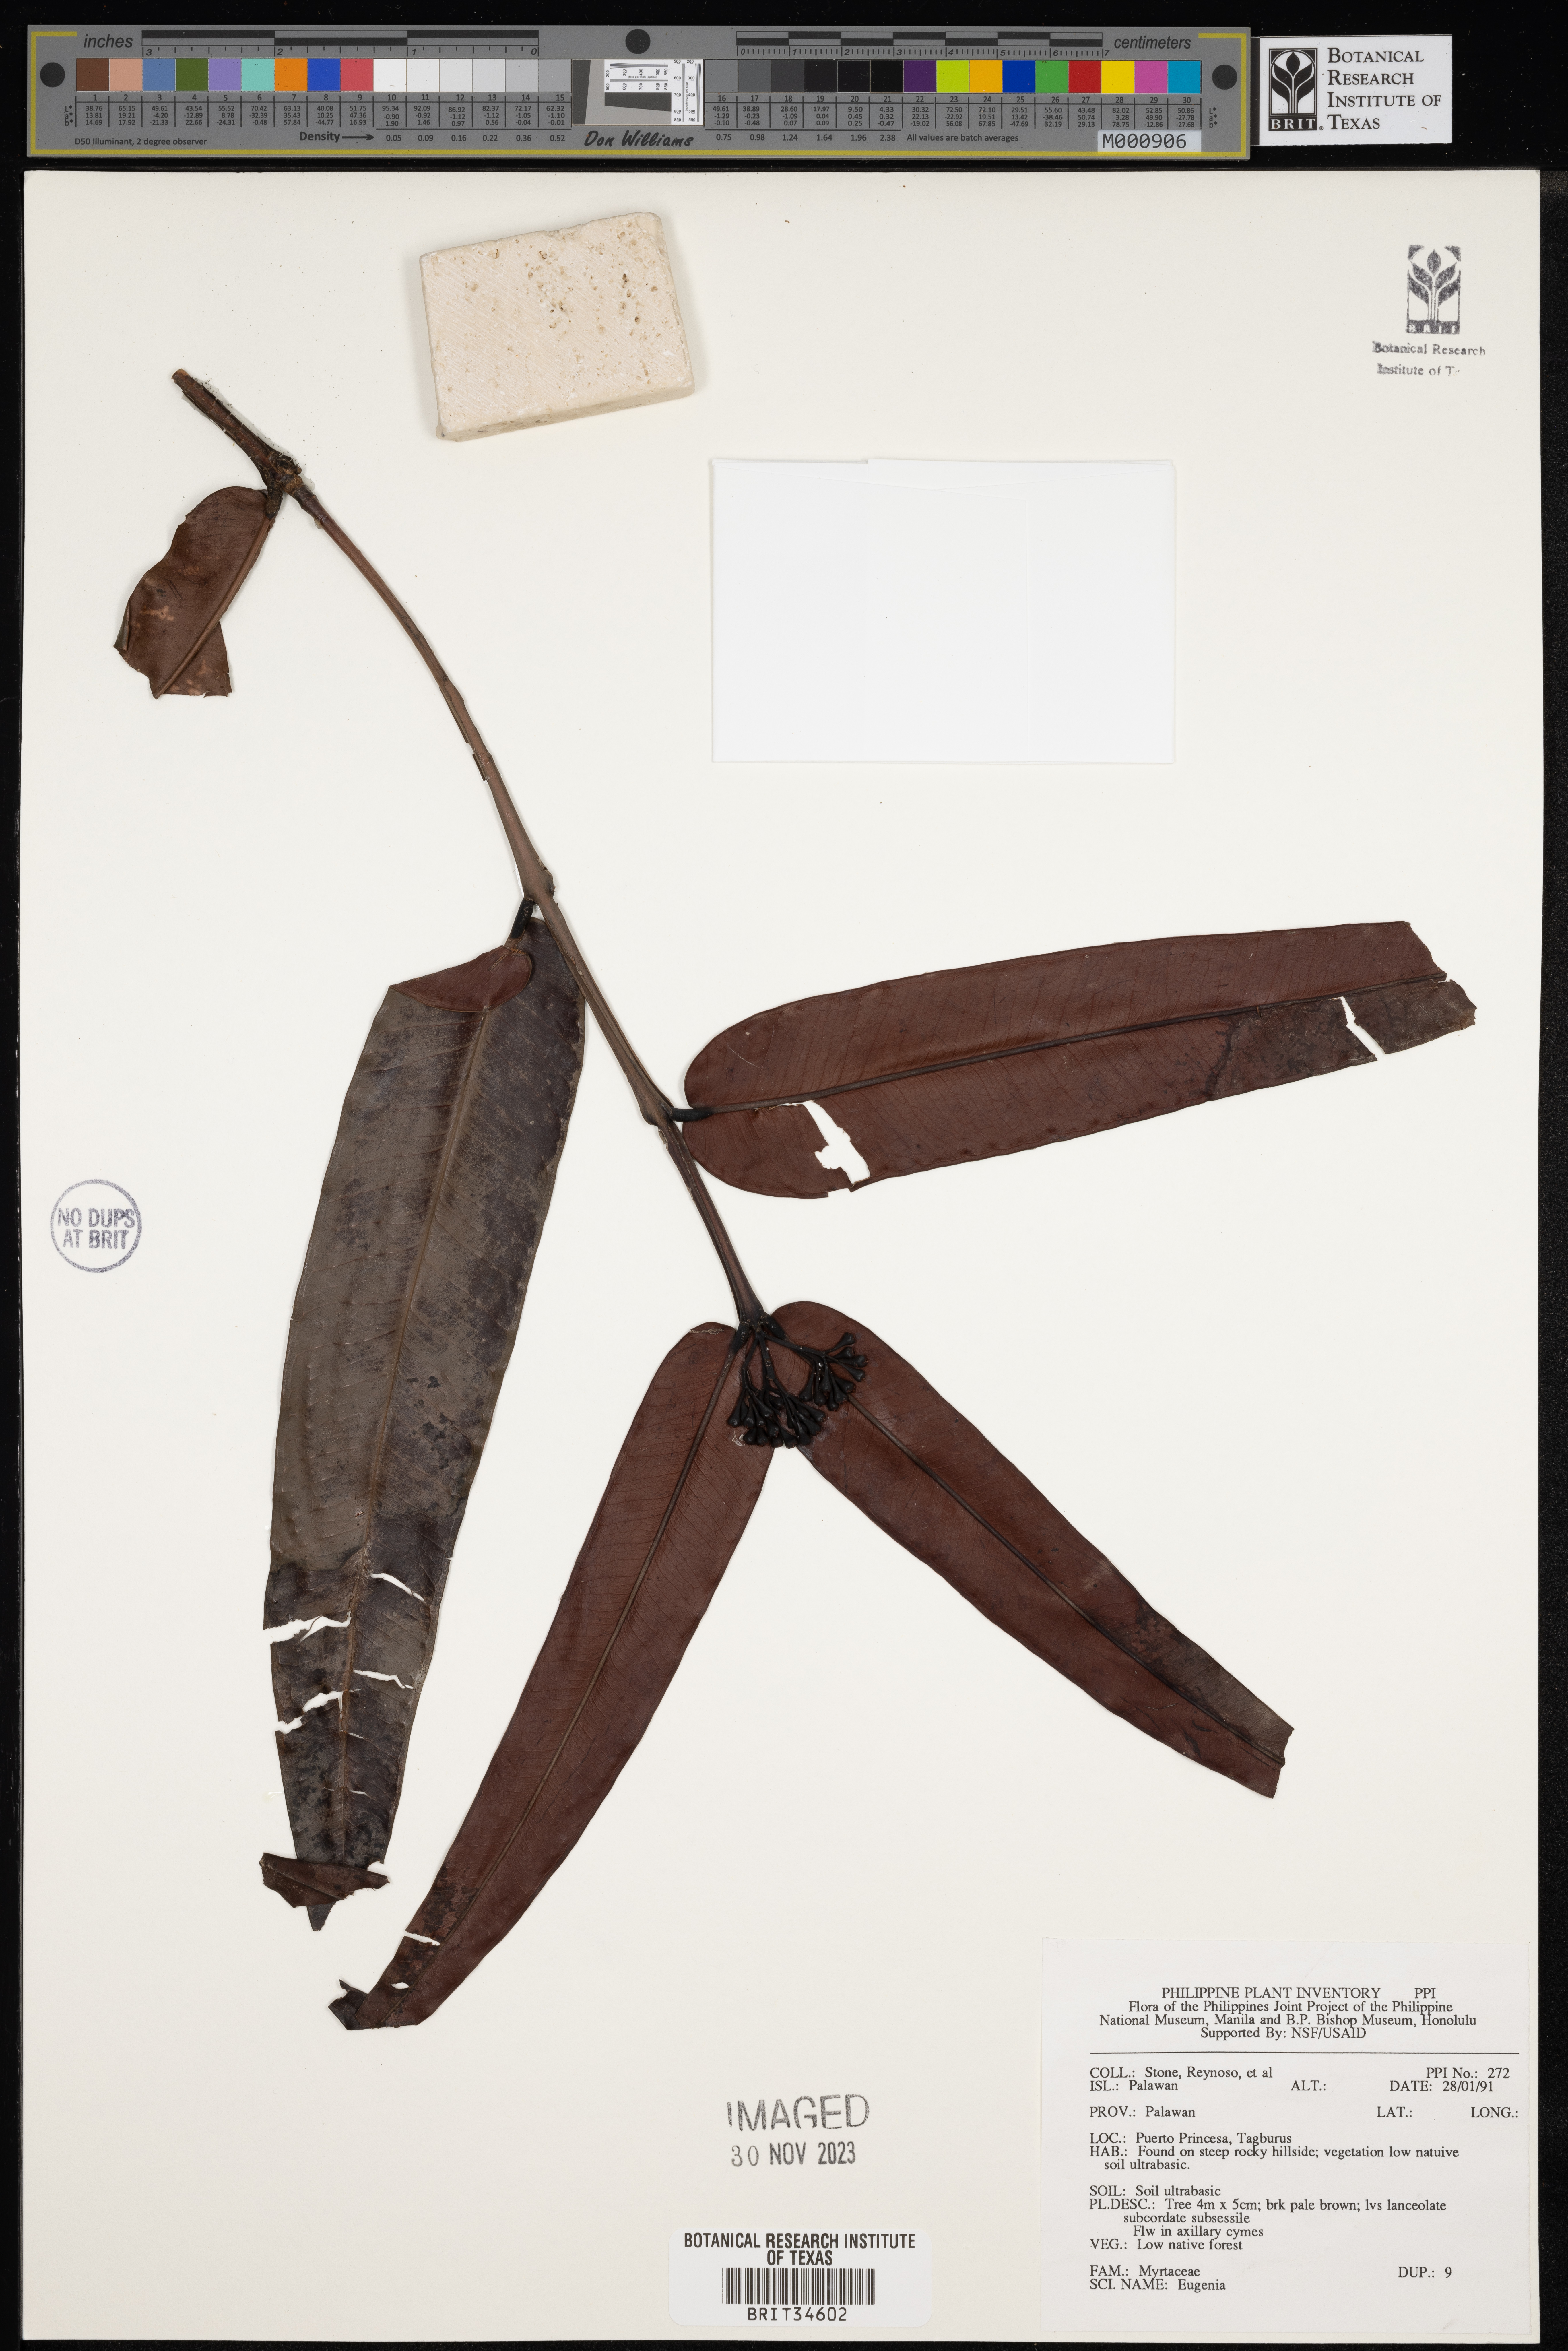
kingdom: Plantae
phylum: Tracheophyta
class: Magnoliopsida
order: Myrtales
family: Myrtaceae
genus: Eugenia
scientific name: Eugenia
